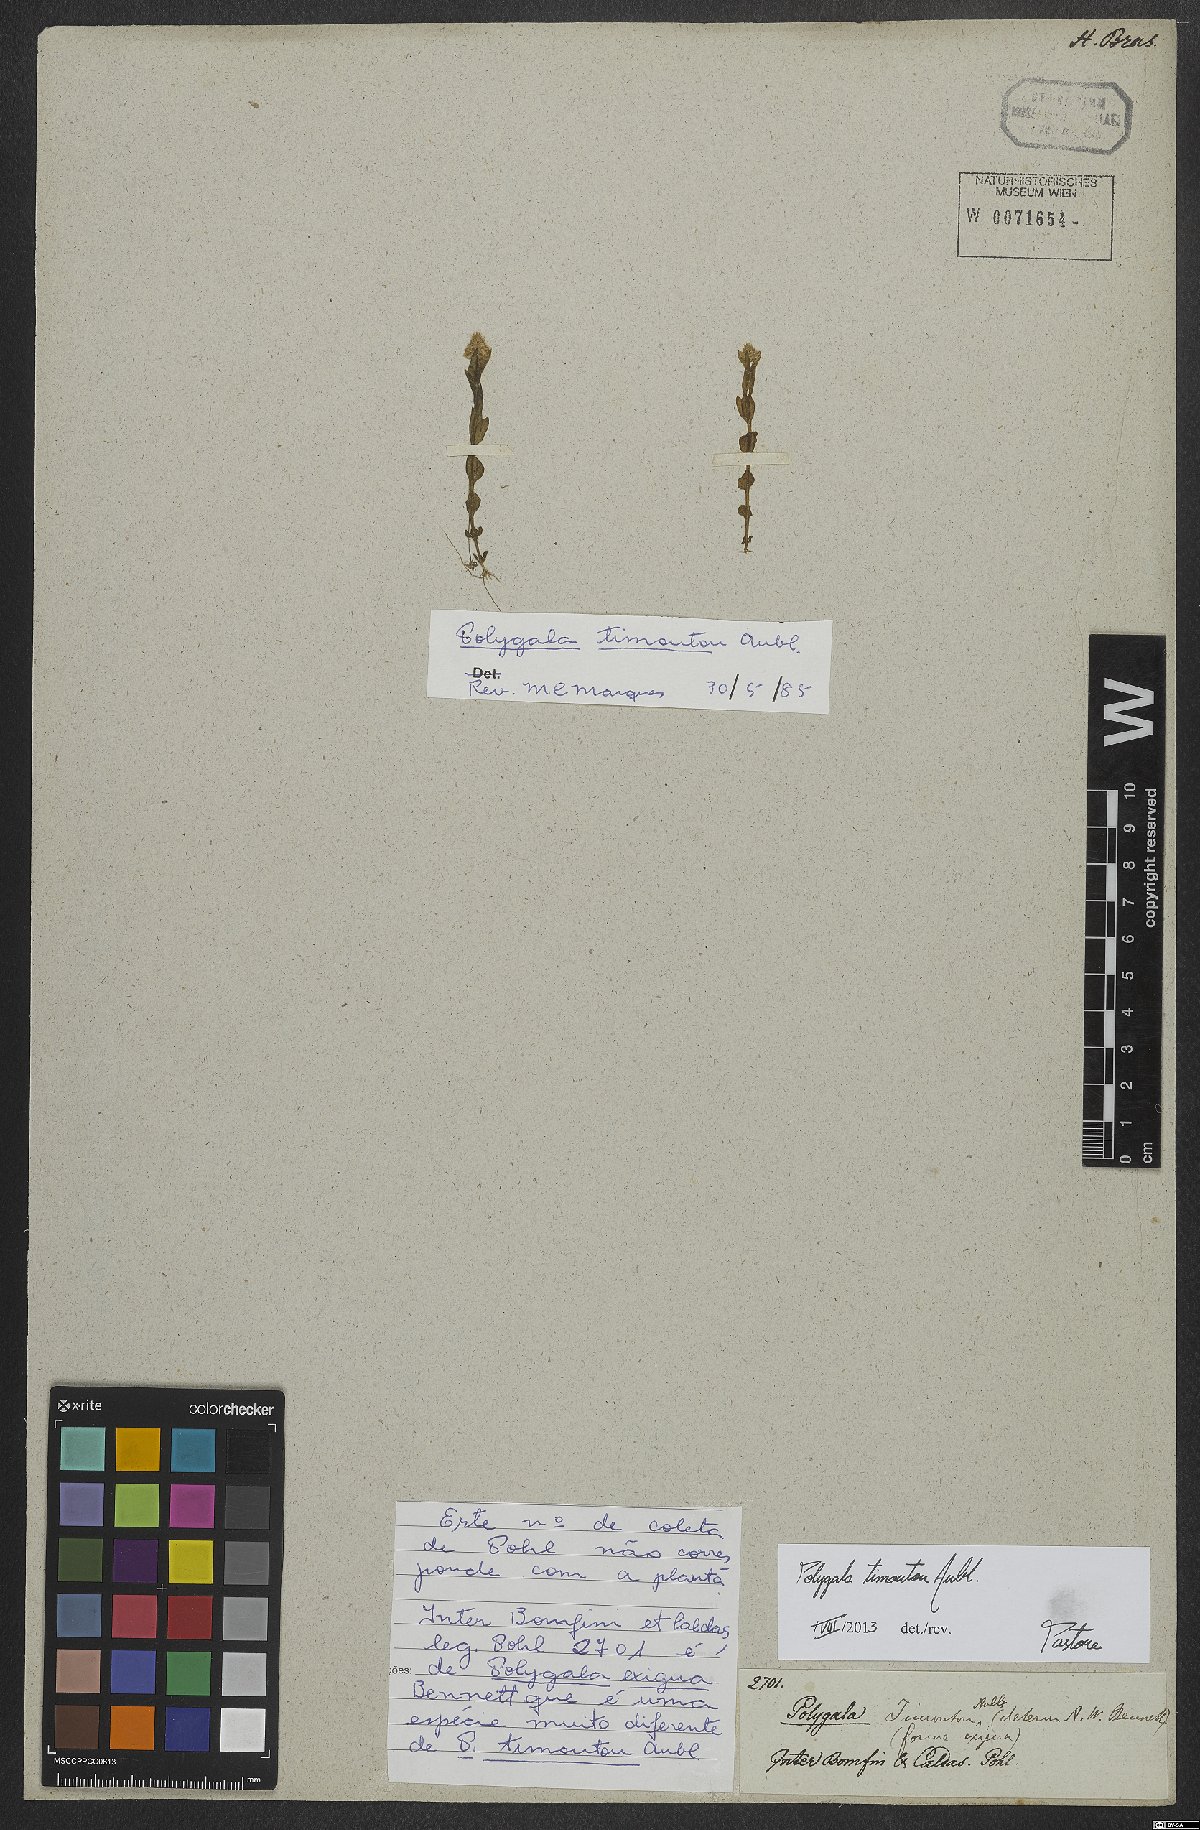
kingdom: Plantae
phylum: Tracheophyta
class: Magnoliopsida
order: Fabales
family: Polygalaceae
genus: Polygala
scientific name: Polygala timoutou
